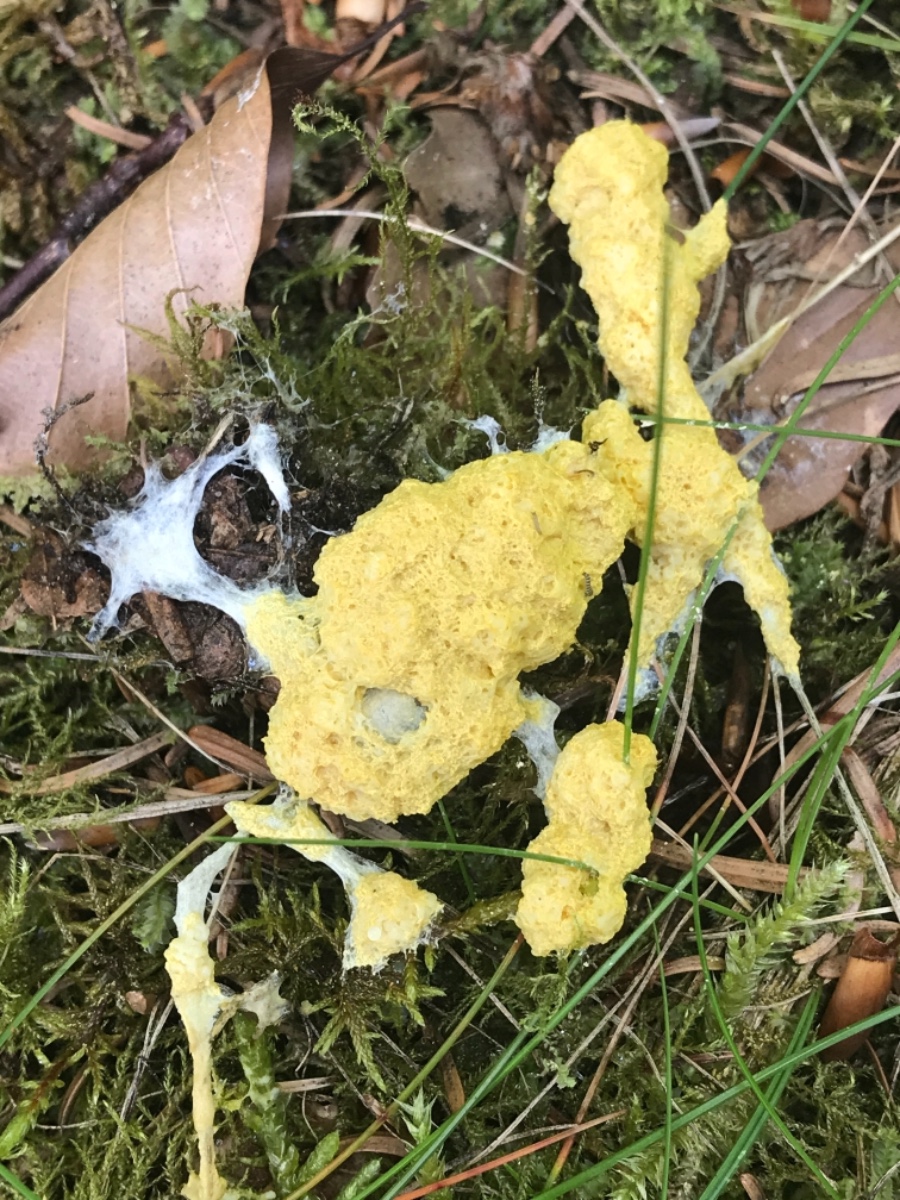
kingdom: Protozoa
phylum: Mycetozoa
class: Myxomycetes
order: Physarales
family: Physaraceae
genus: Fuligo
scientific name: Fuligo septica
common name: gul troldsmør
